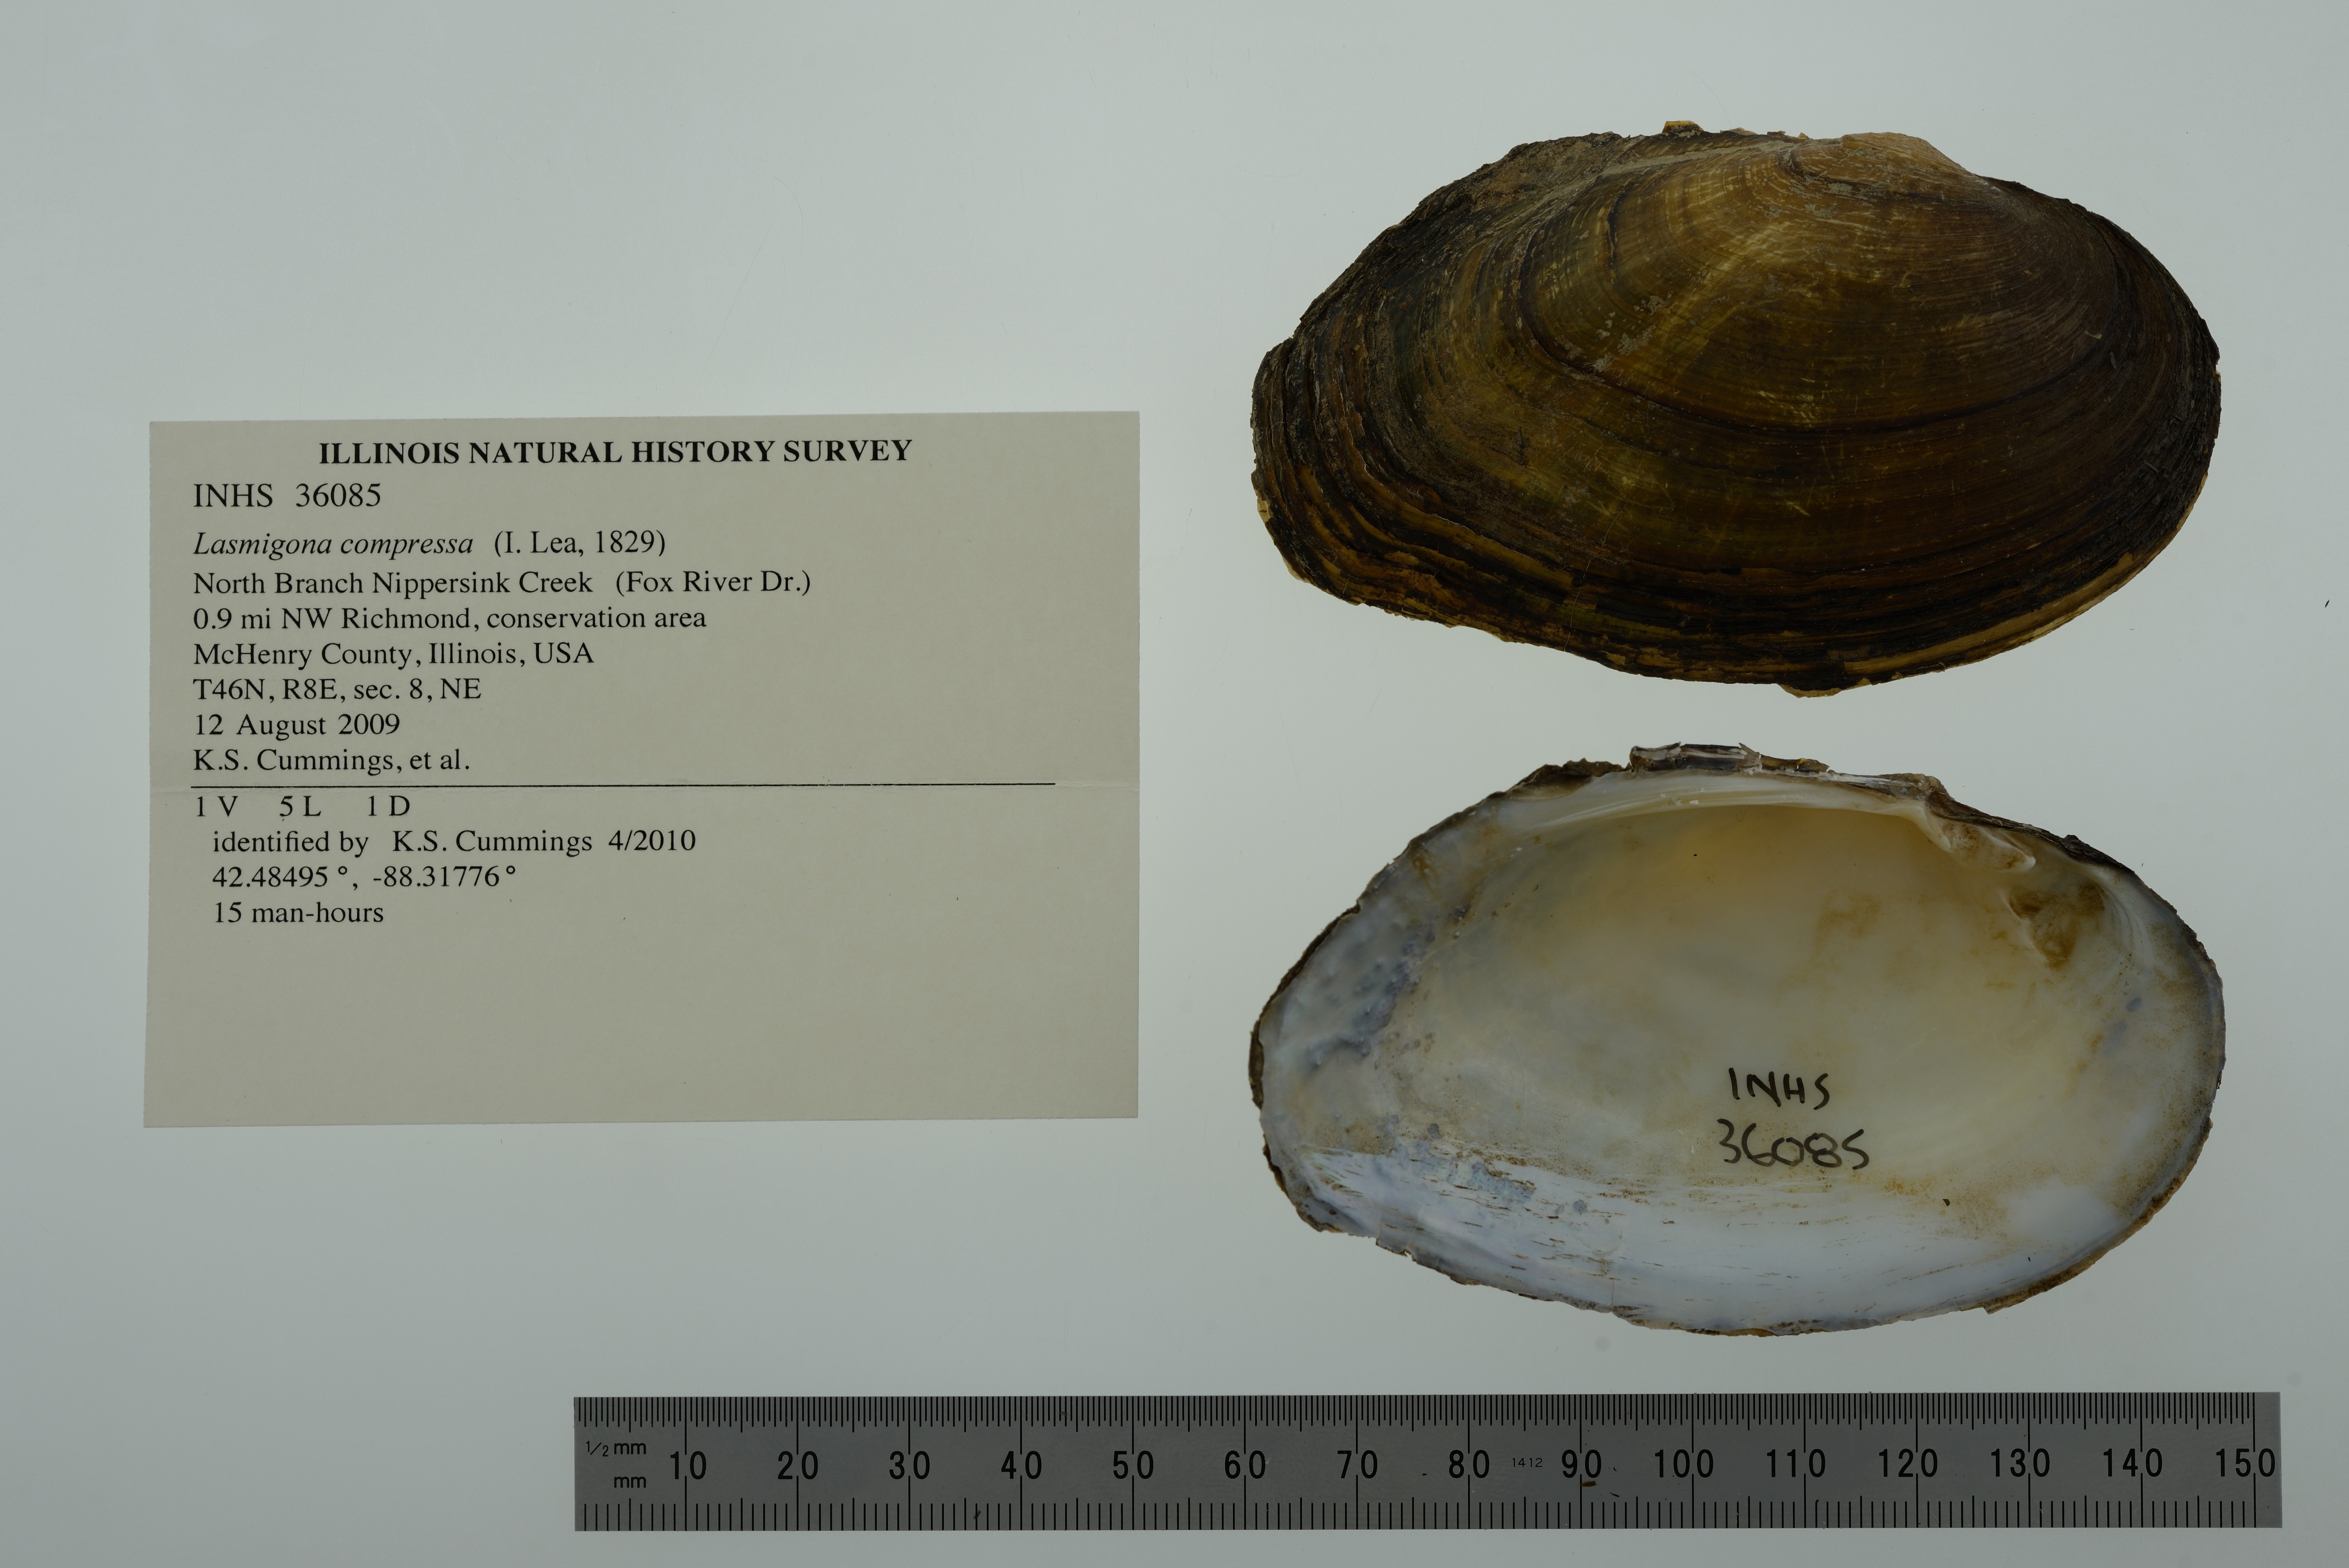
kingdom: Animalia
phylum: Mollusca
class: Bivalvia
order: Unionida
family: Unionidae
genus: Lasmigona
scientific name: Lasmigona compressa
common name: Creek heelsplitter
